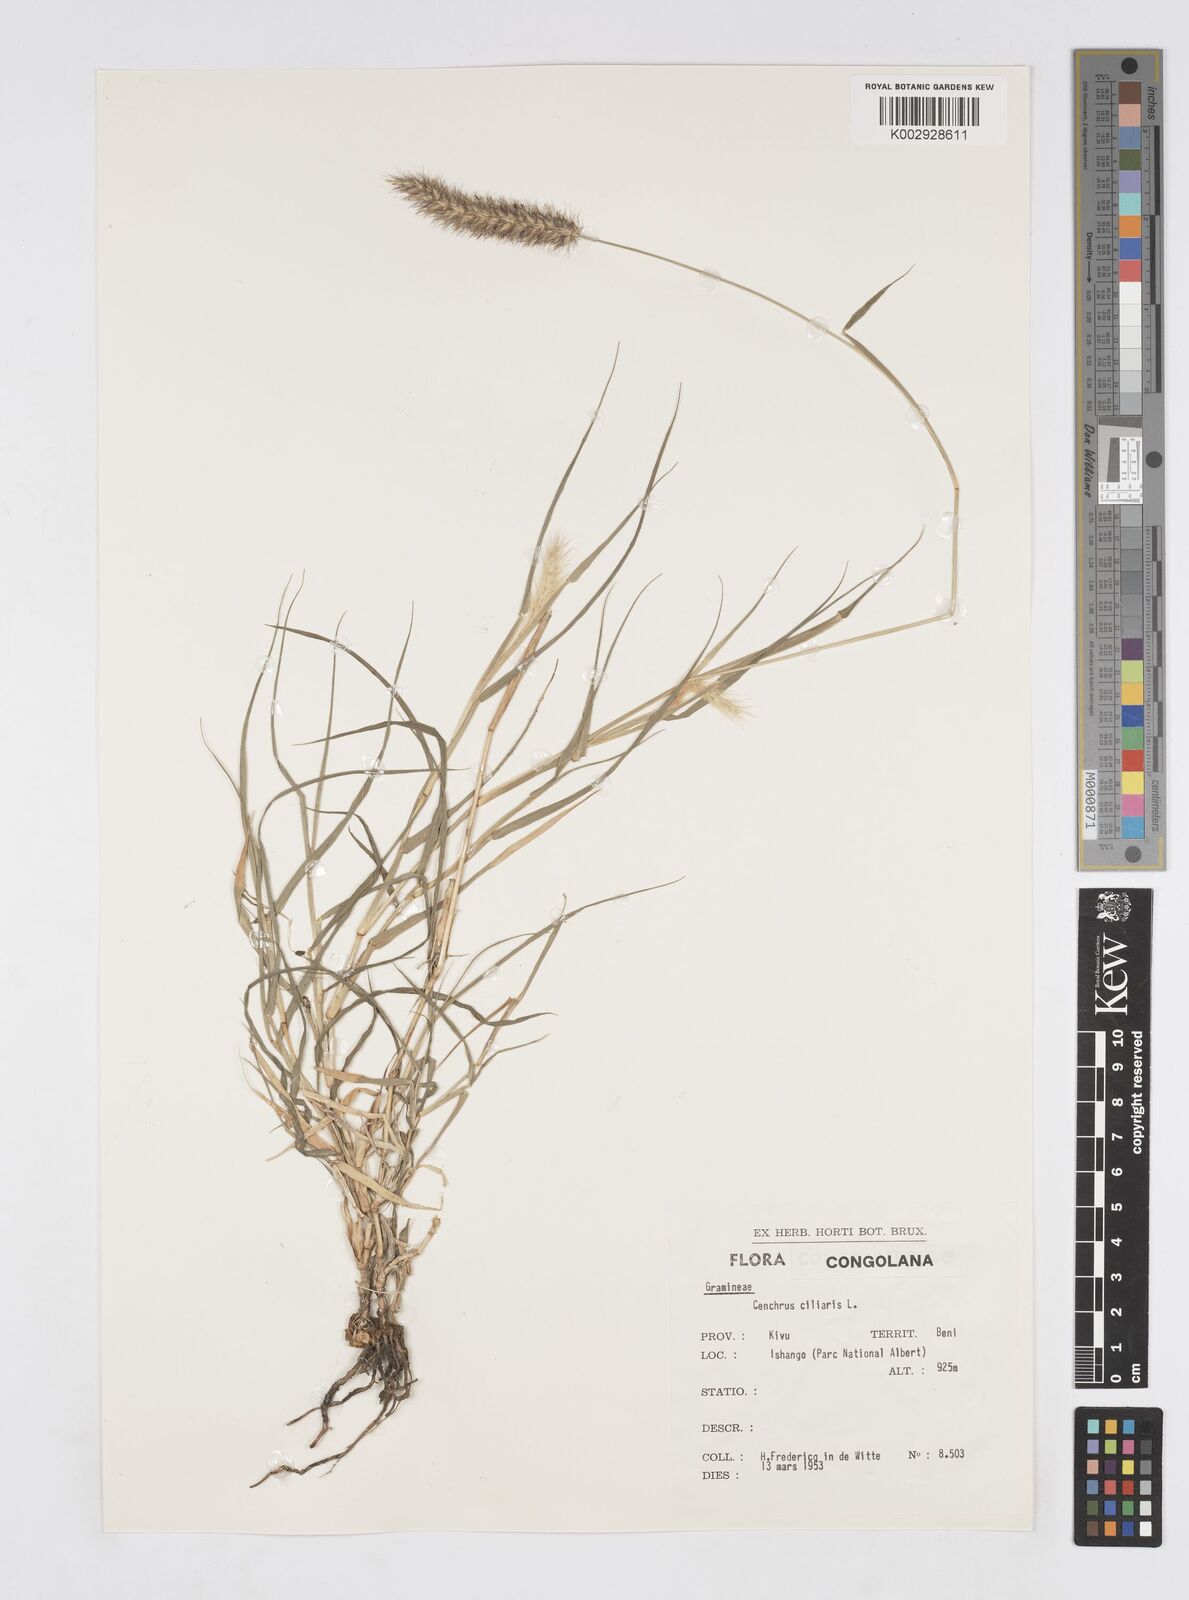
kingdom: Plantae
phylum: Tracheophyta
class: Liliopsida
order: Poales
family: Poaceae
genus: Cenchrus
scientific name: Cenchrus ciliaris
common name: Buffelgrass
